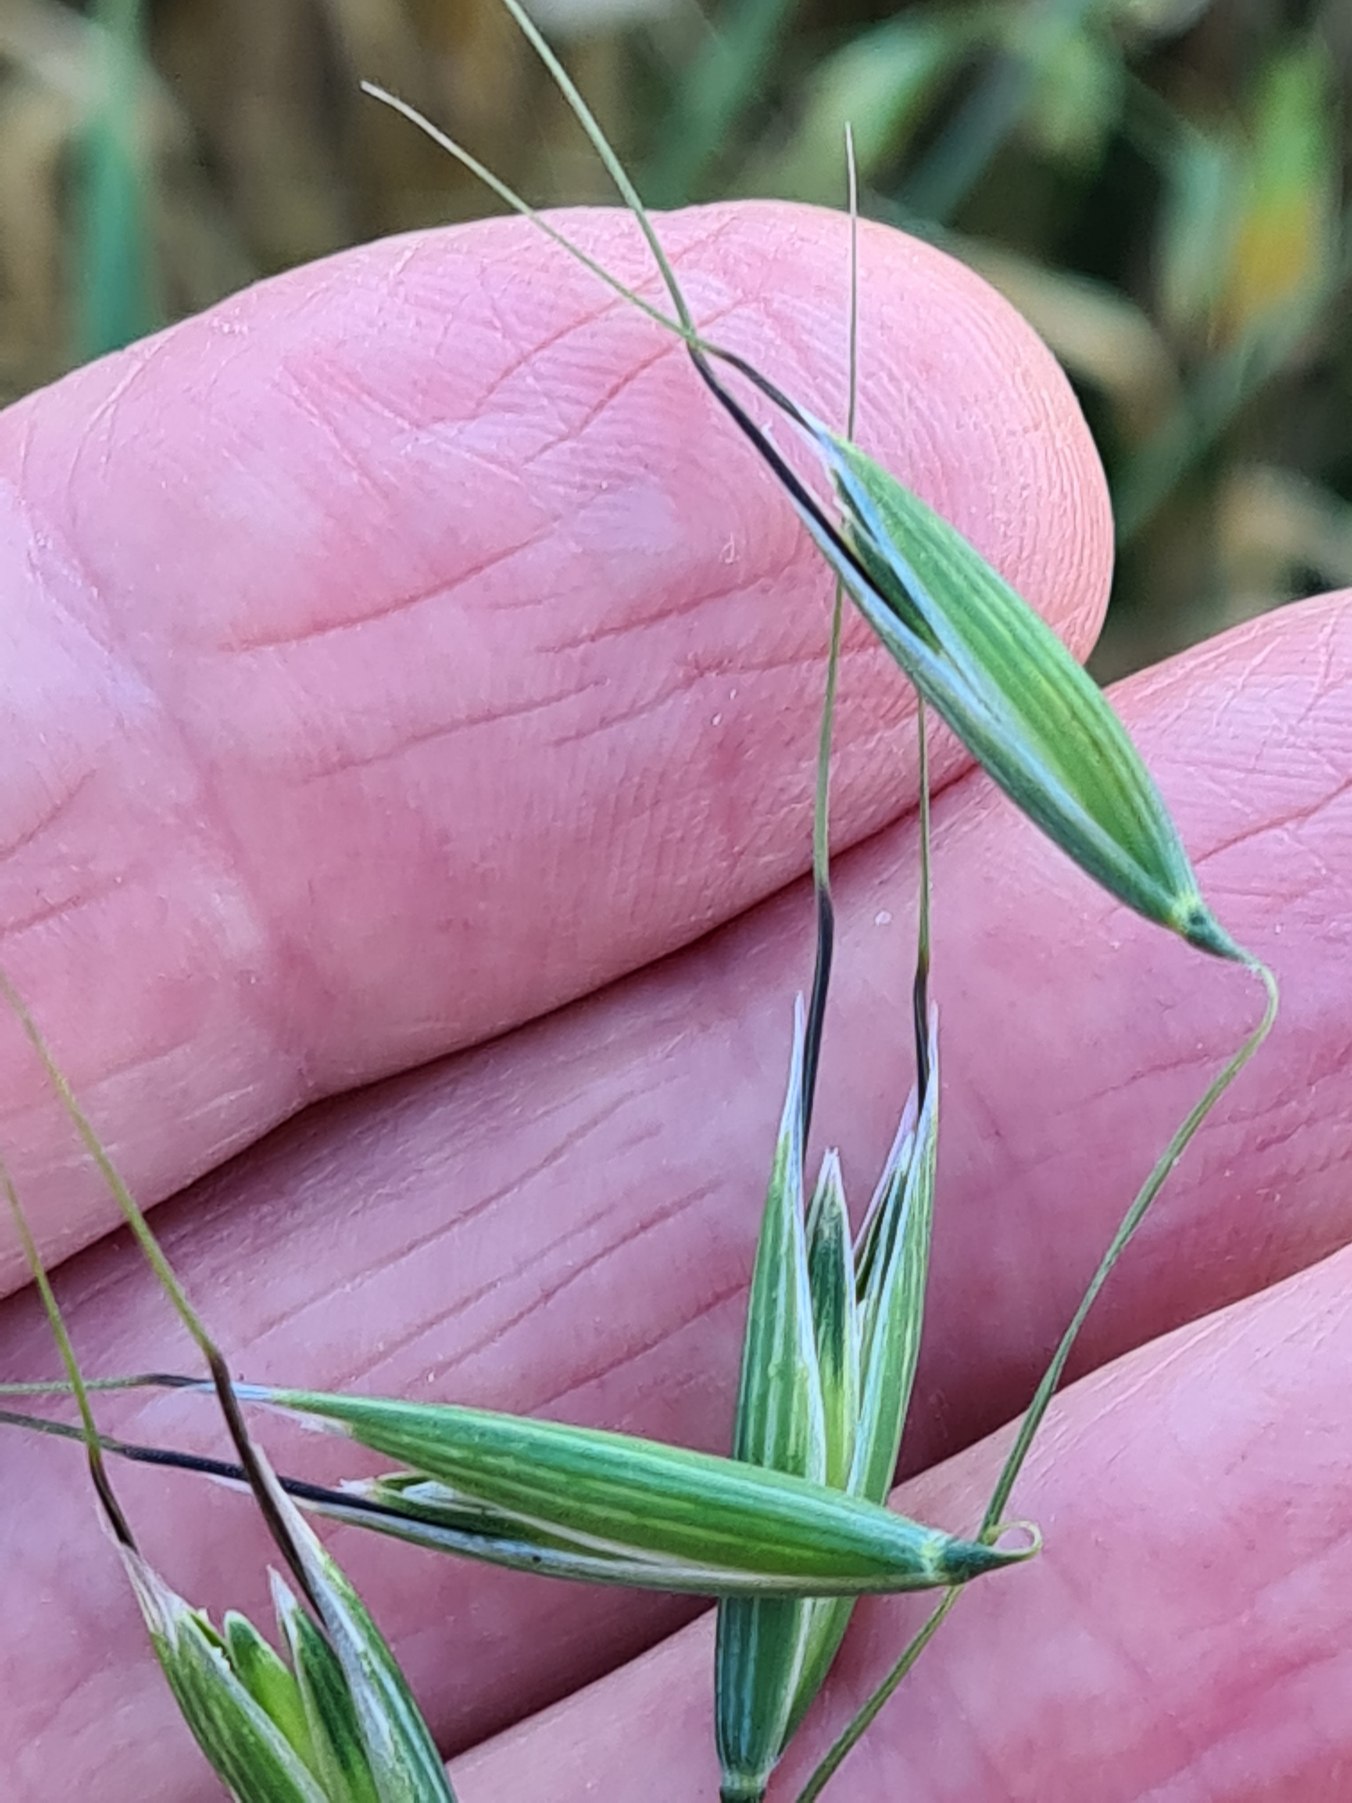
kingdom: Plantae
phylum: Tracheophyta
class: Liliopsida
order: Poales
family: Poaceae
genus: Avena
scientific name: Avena fatua
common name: Flyve-havre
